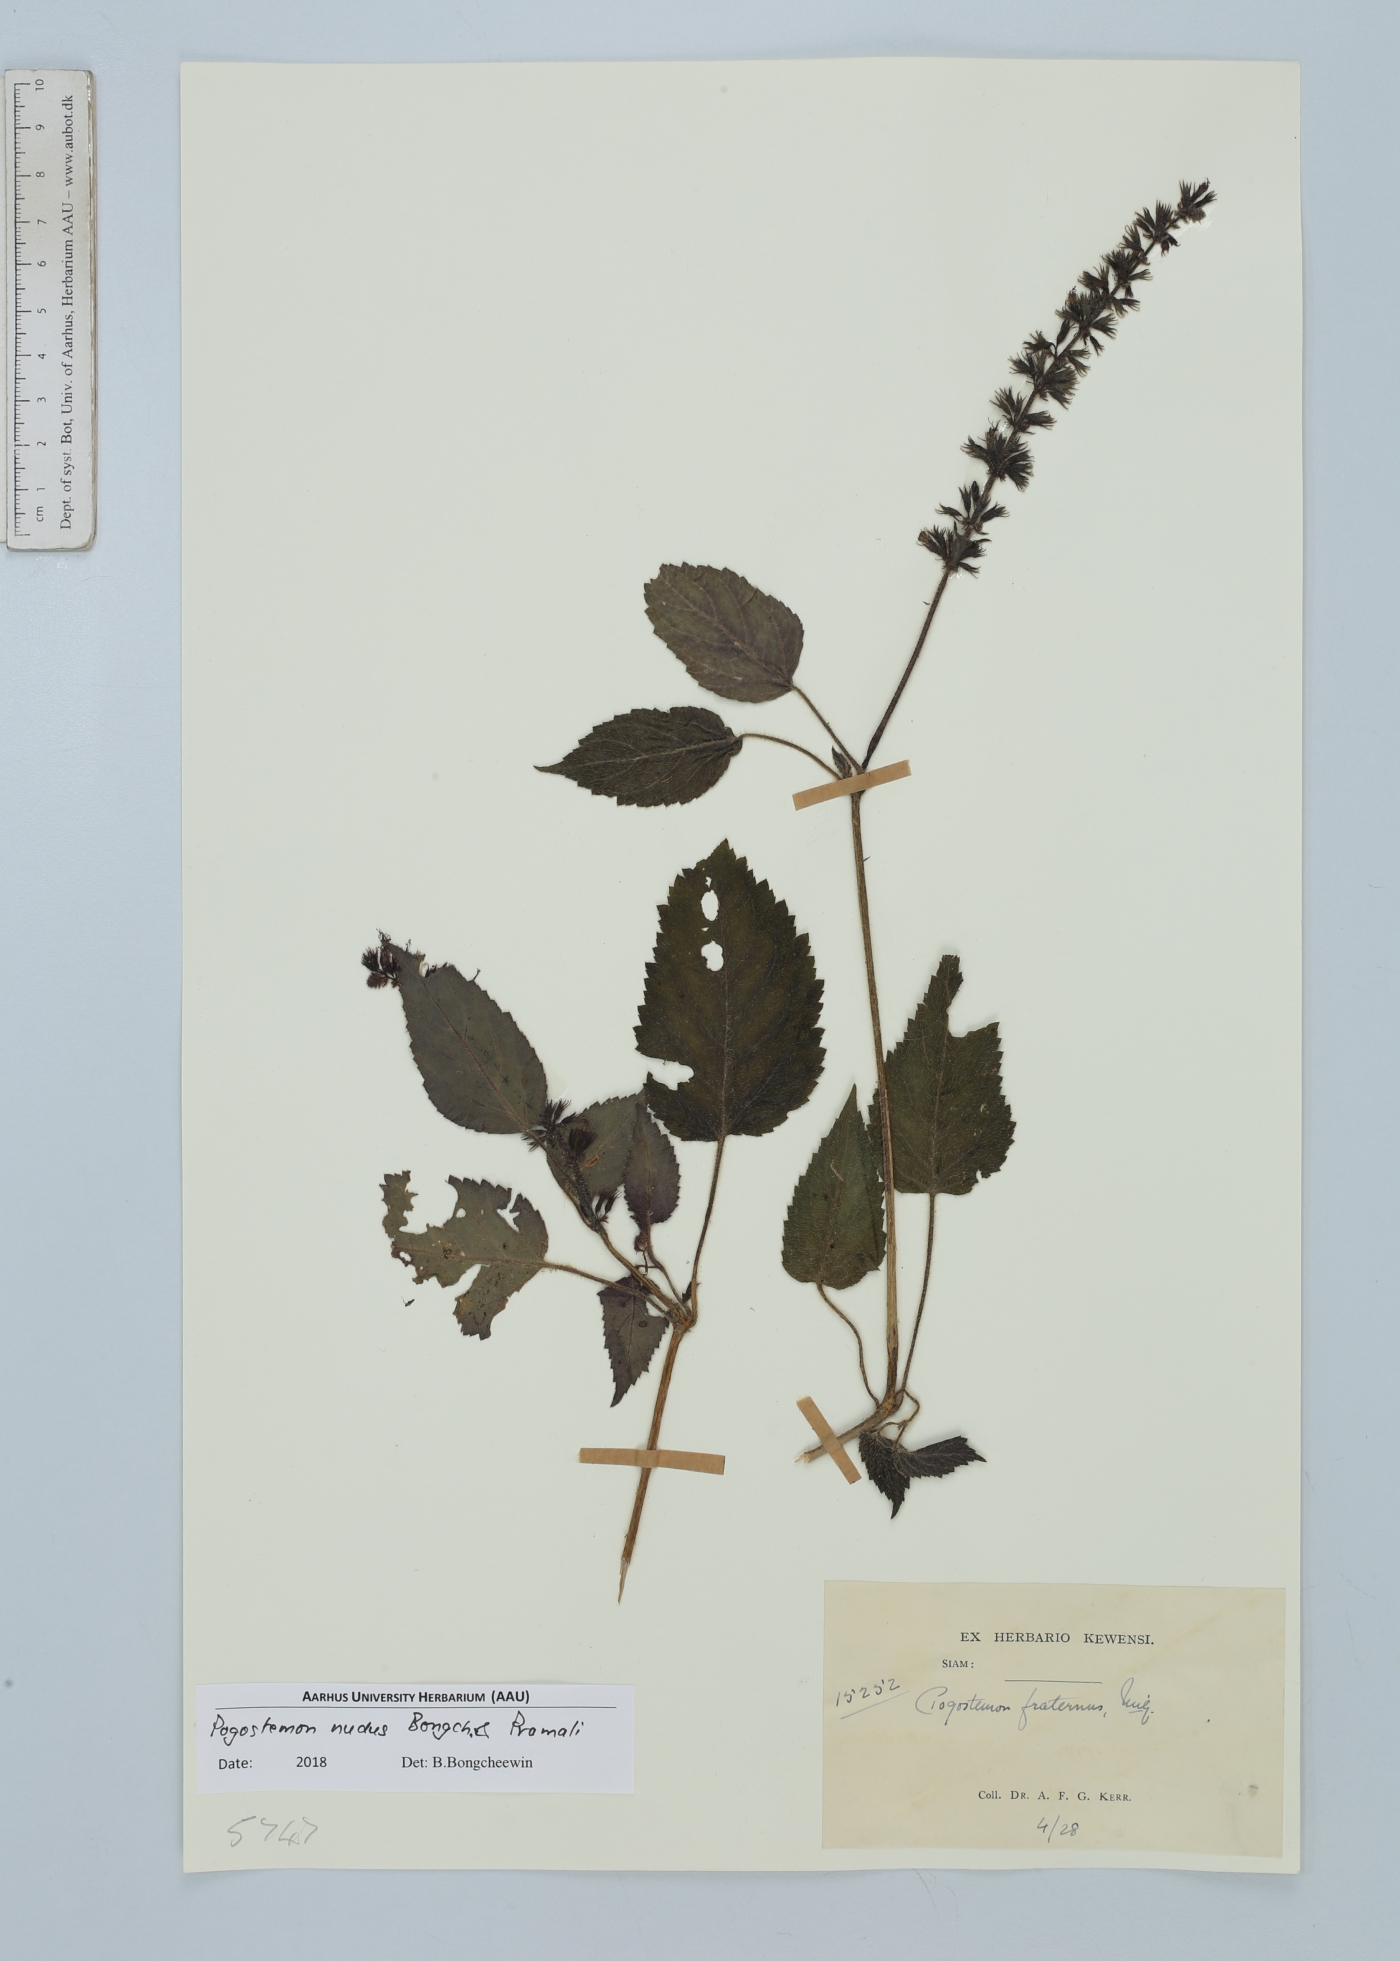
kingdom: Plantae
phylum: Tracheophyta
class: Magnoliopsida
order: Lamiales
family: Lamiaceae
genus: Pogostemon
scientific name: Pogostemon nudus
